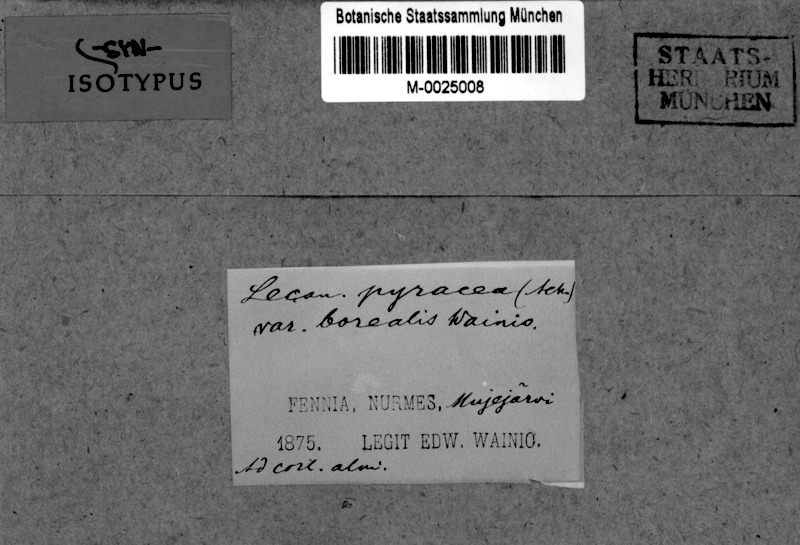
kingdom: Fungi
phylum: Ascomycota
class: Lecanoromycetes
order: Teloschistales
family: Teloschistaceae
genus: Lendemeriella
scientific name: Lendemeriella borealis
